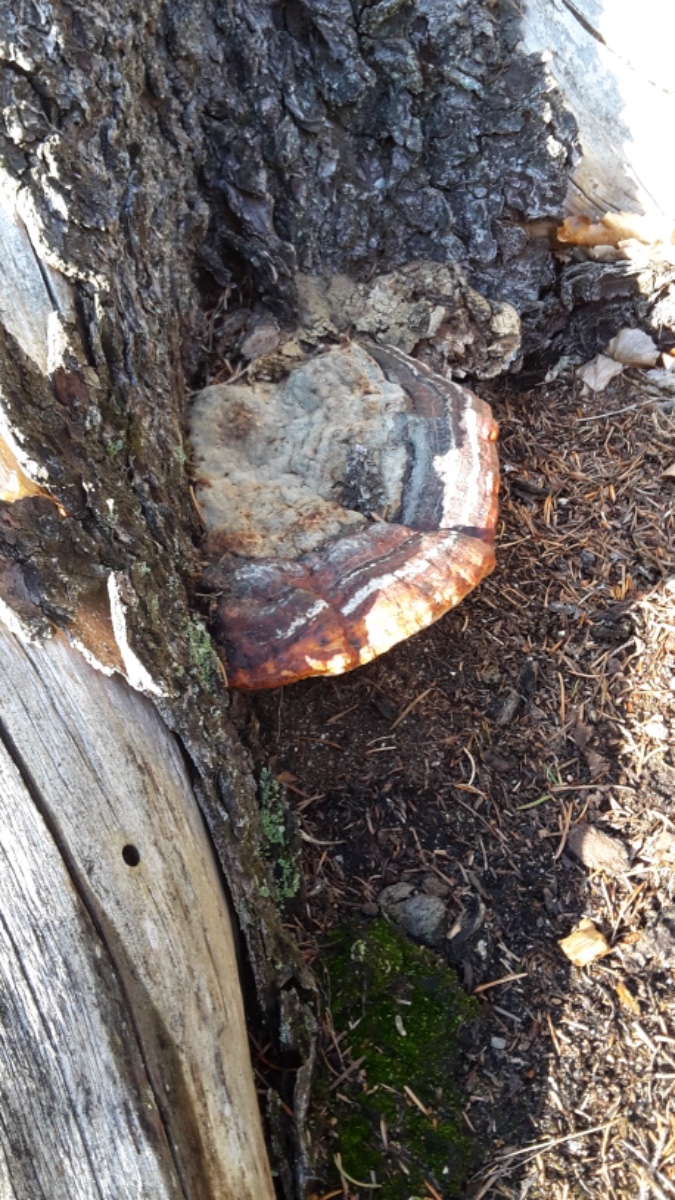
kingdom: Fungi
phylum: Basidiomycota
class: Agaricomycetes
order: Polyporales
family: Fomitopsidaceae
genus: Fomitopsis
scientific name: Fomitopsis pinicola
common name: randbæltet hovporesvamp
